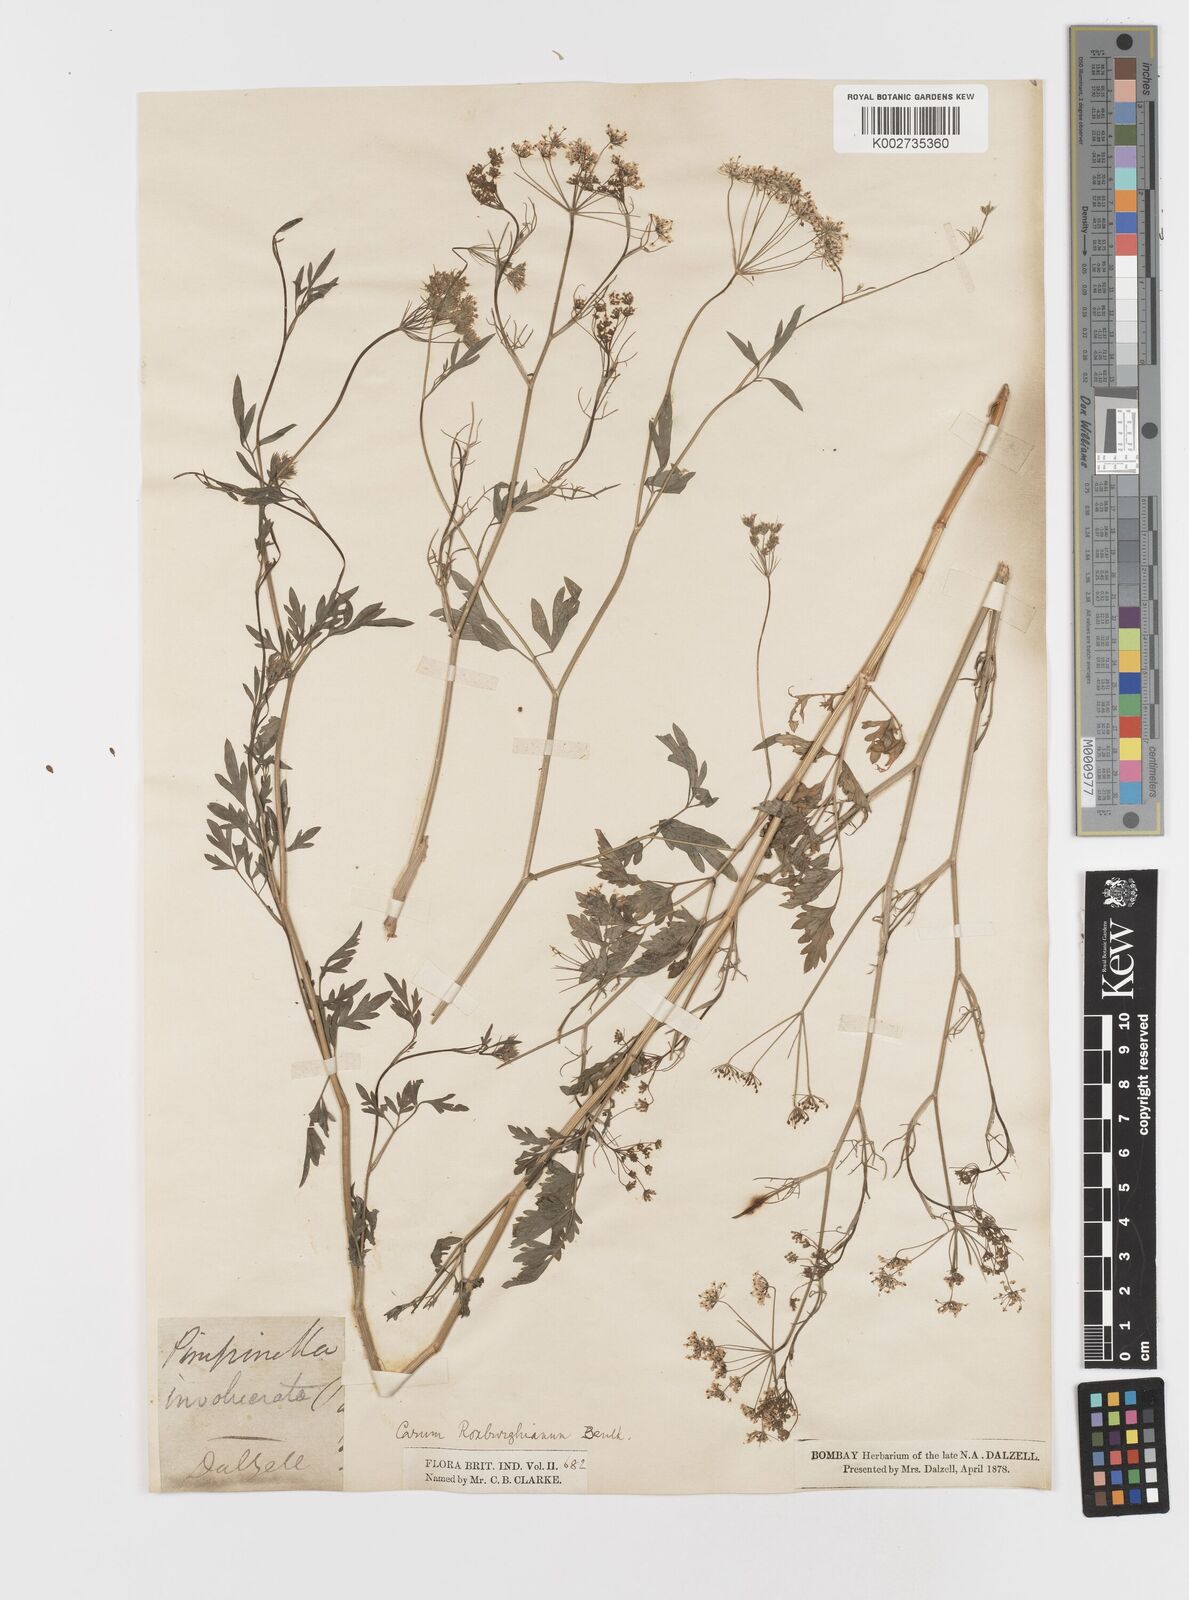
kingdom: Plantae
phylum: Tracheophyta
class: Magnoliopsida
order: Apiales
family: Apiaceae
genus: Psammogeton
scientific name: Psammogeton involucratum
